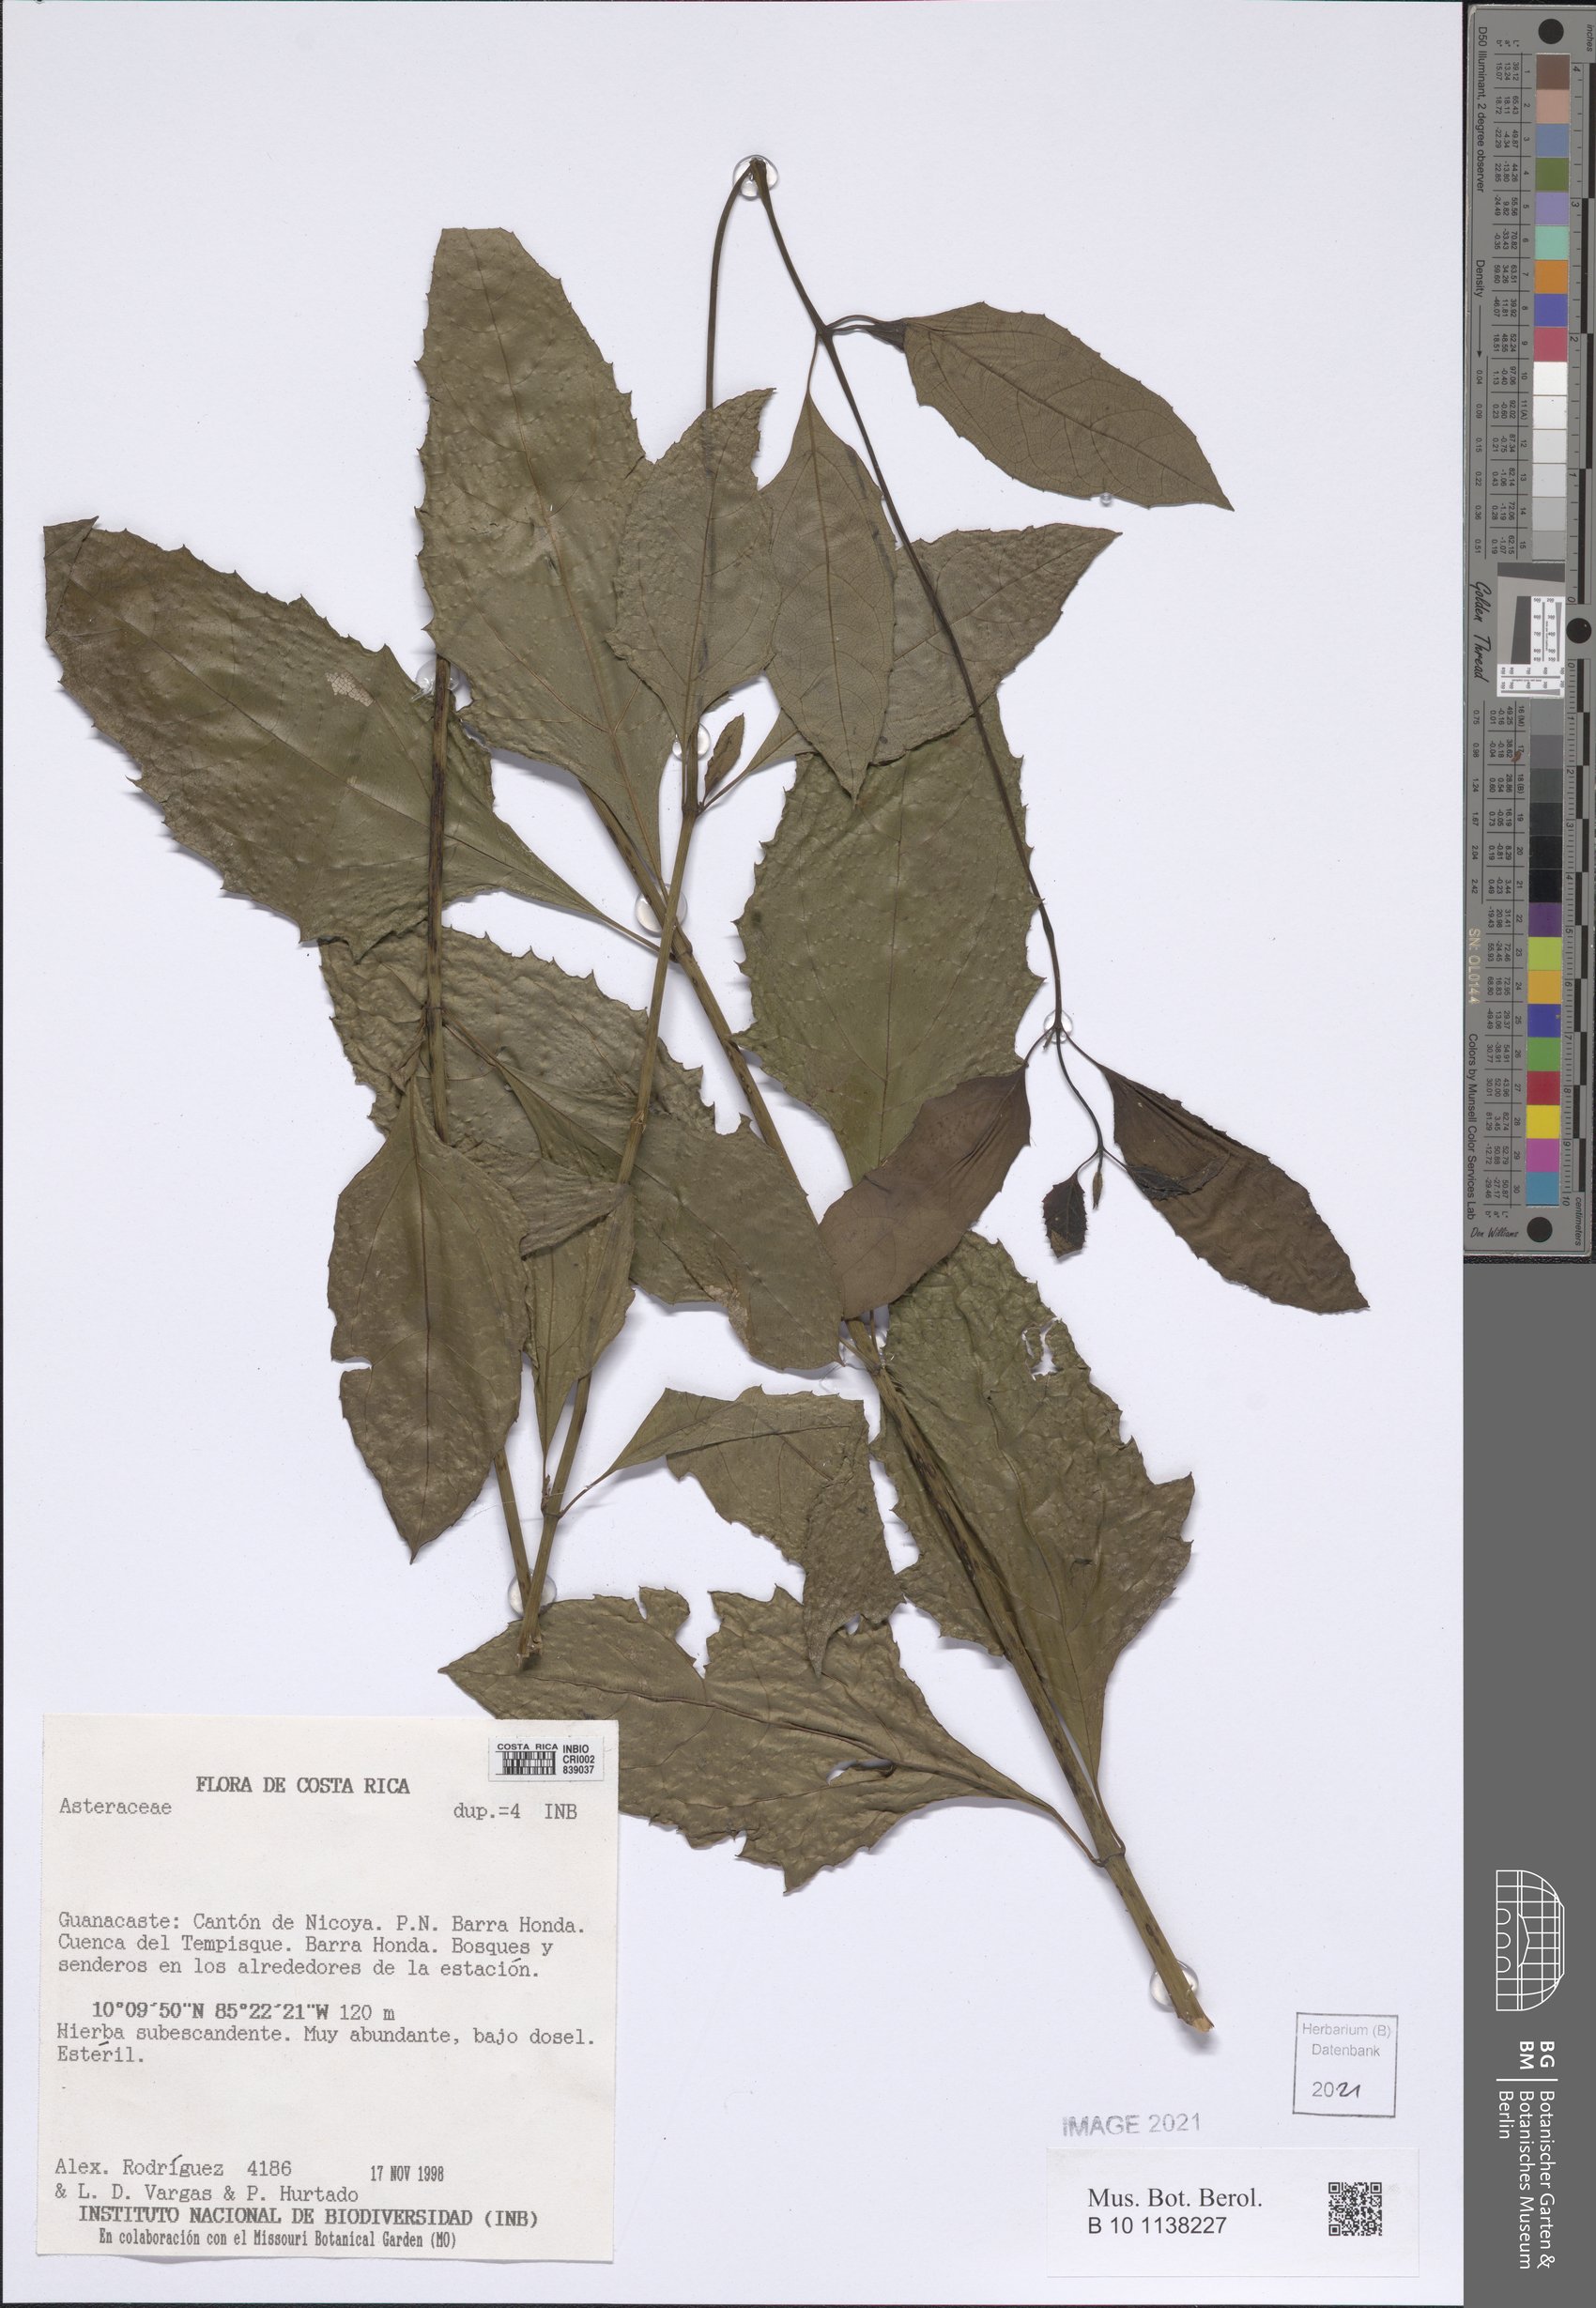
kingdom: Plantae
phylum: Tracheophyta
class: Magnoliopsida
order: Asterales
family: Asteraceae
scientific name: Asteraceae
